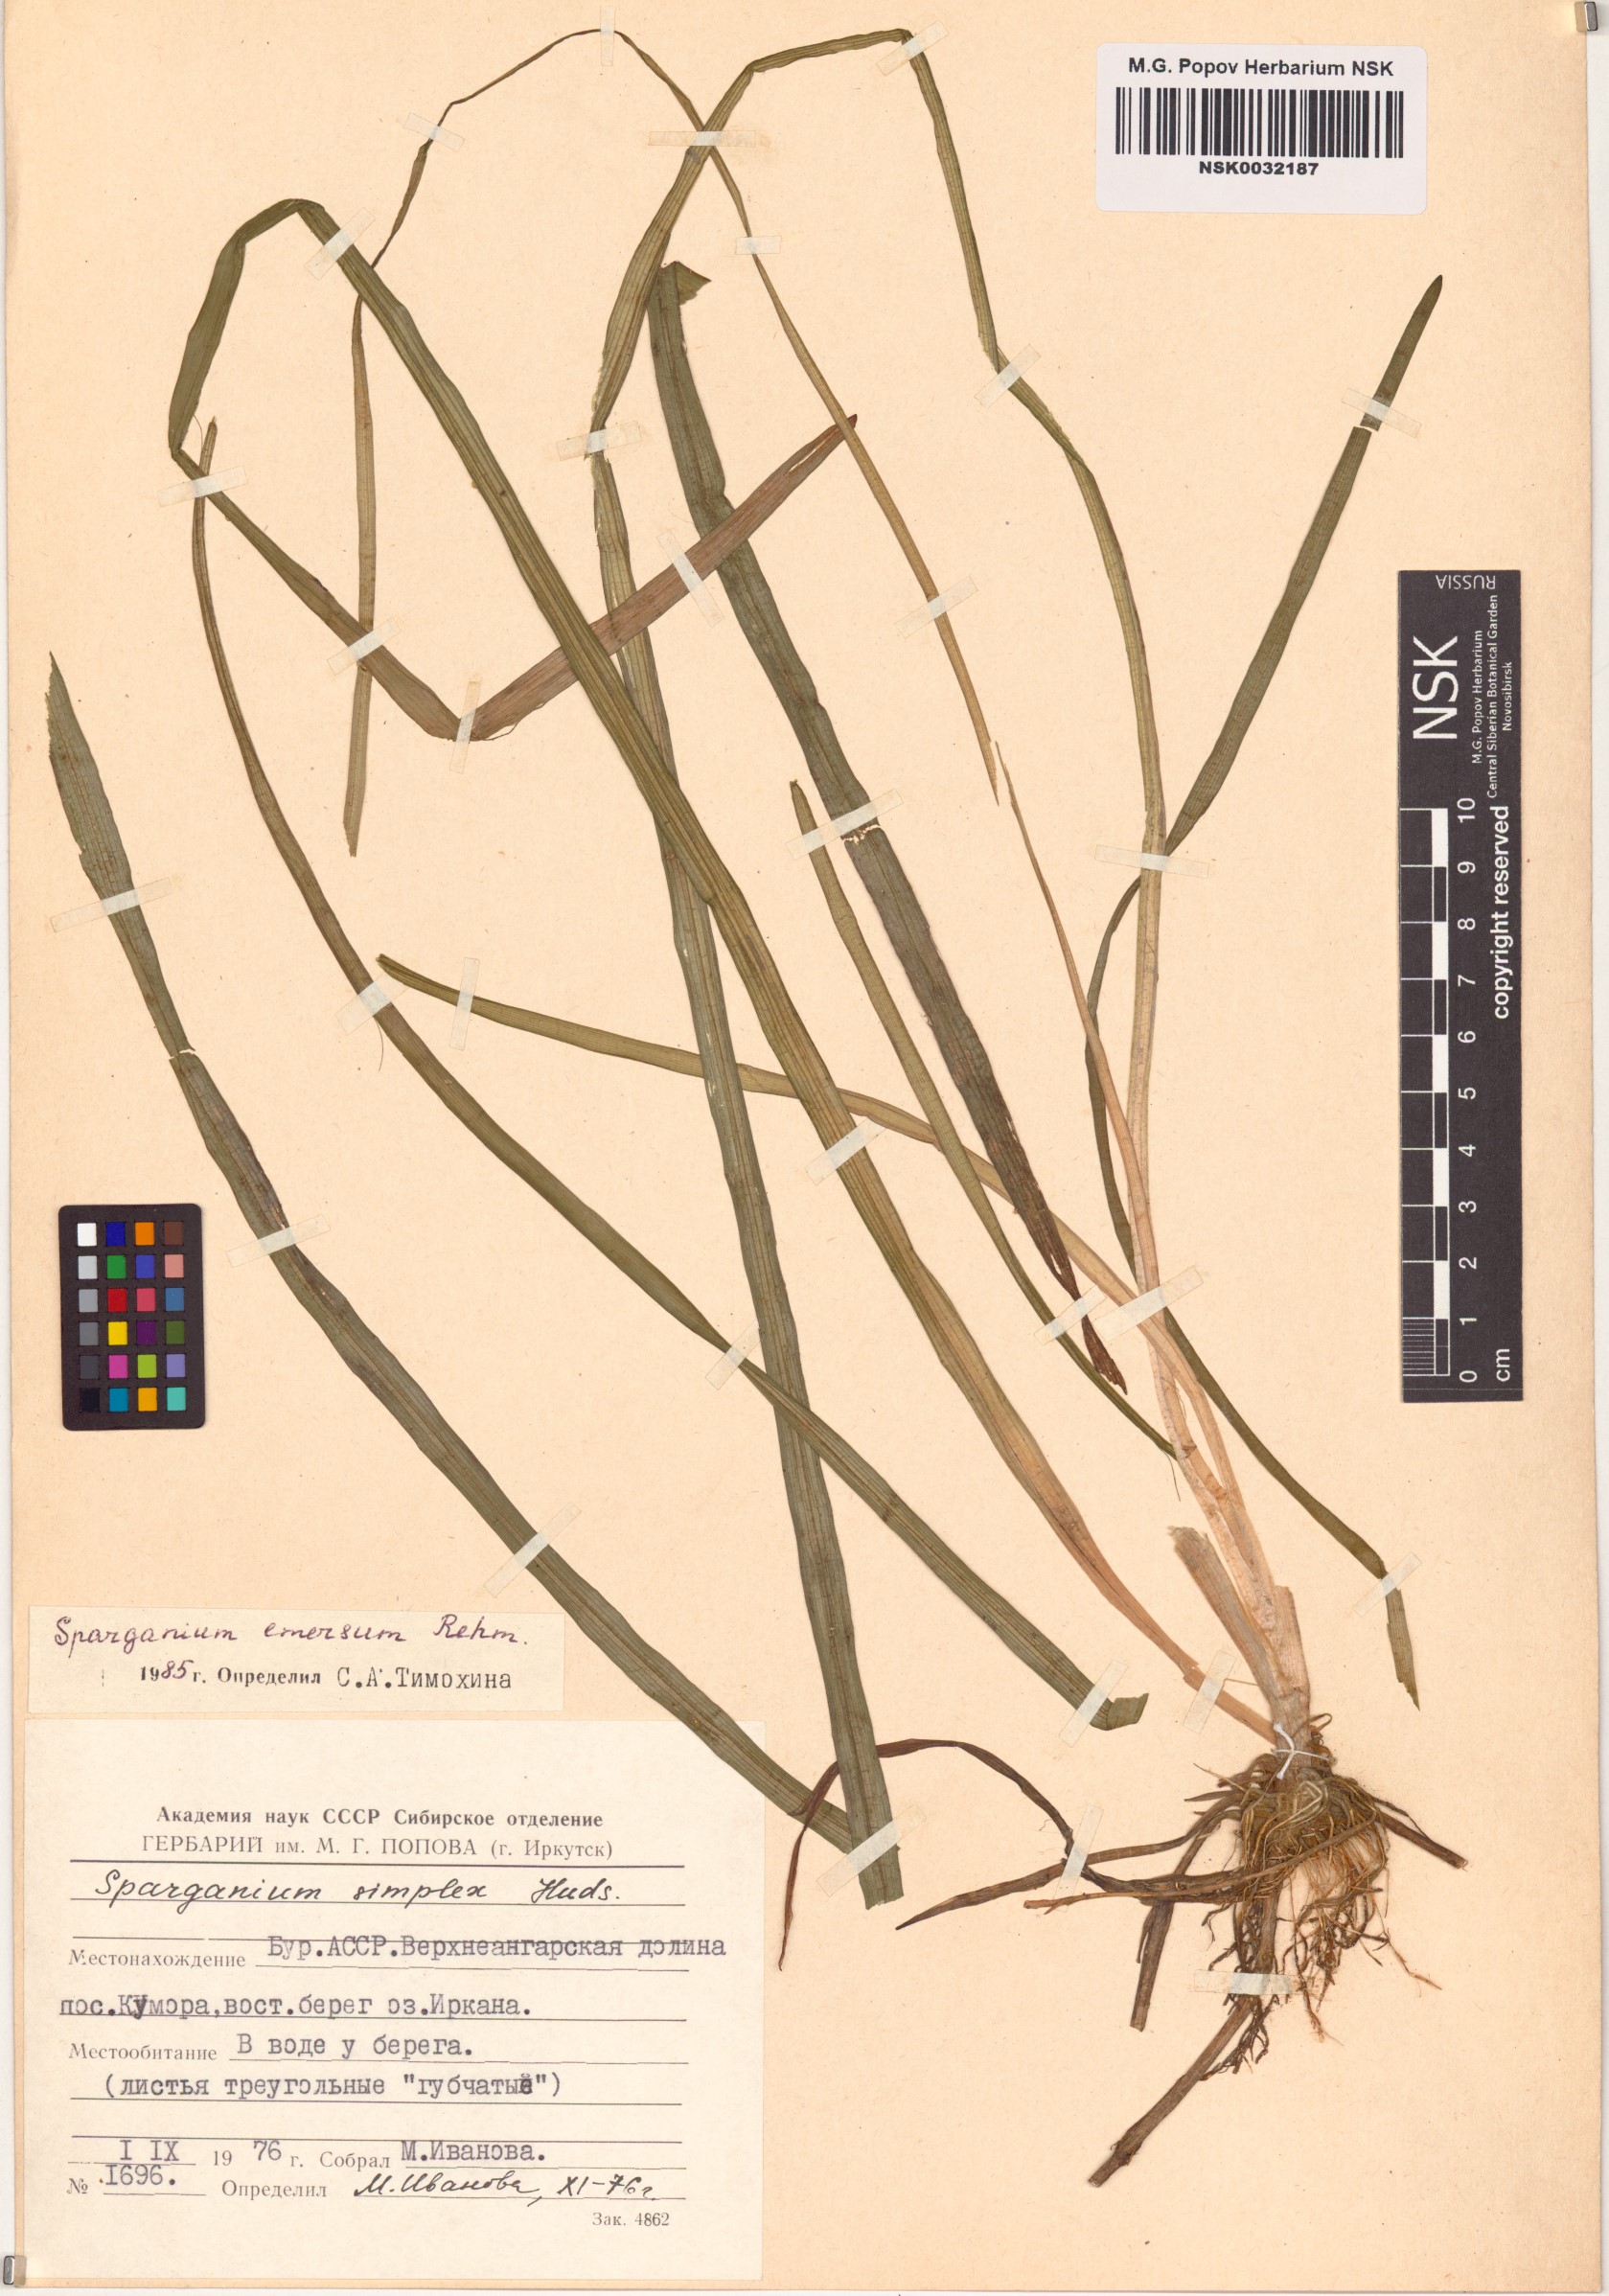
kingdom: Plantae
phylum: Tracheophyta
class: Liliopsida
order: Poales
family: Typhaceae
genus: Sparganium
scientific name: Sparganium emersum
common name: Unbranched bur-reed
